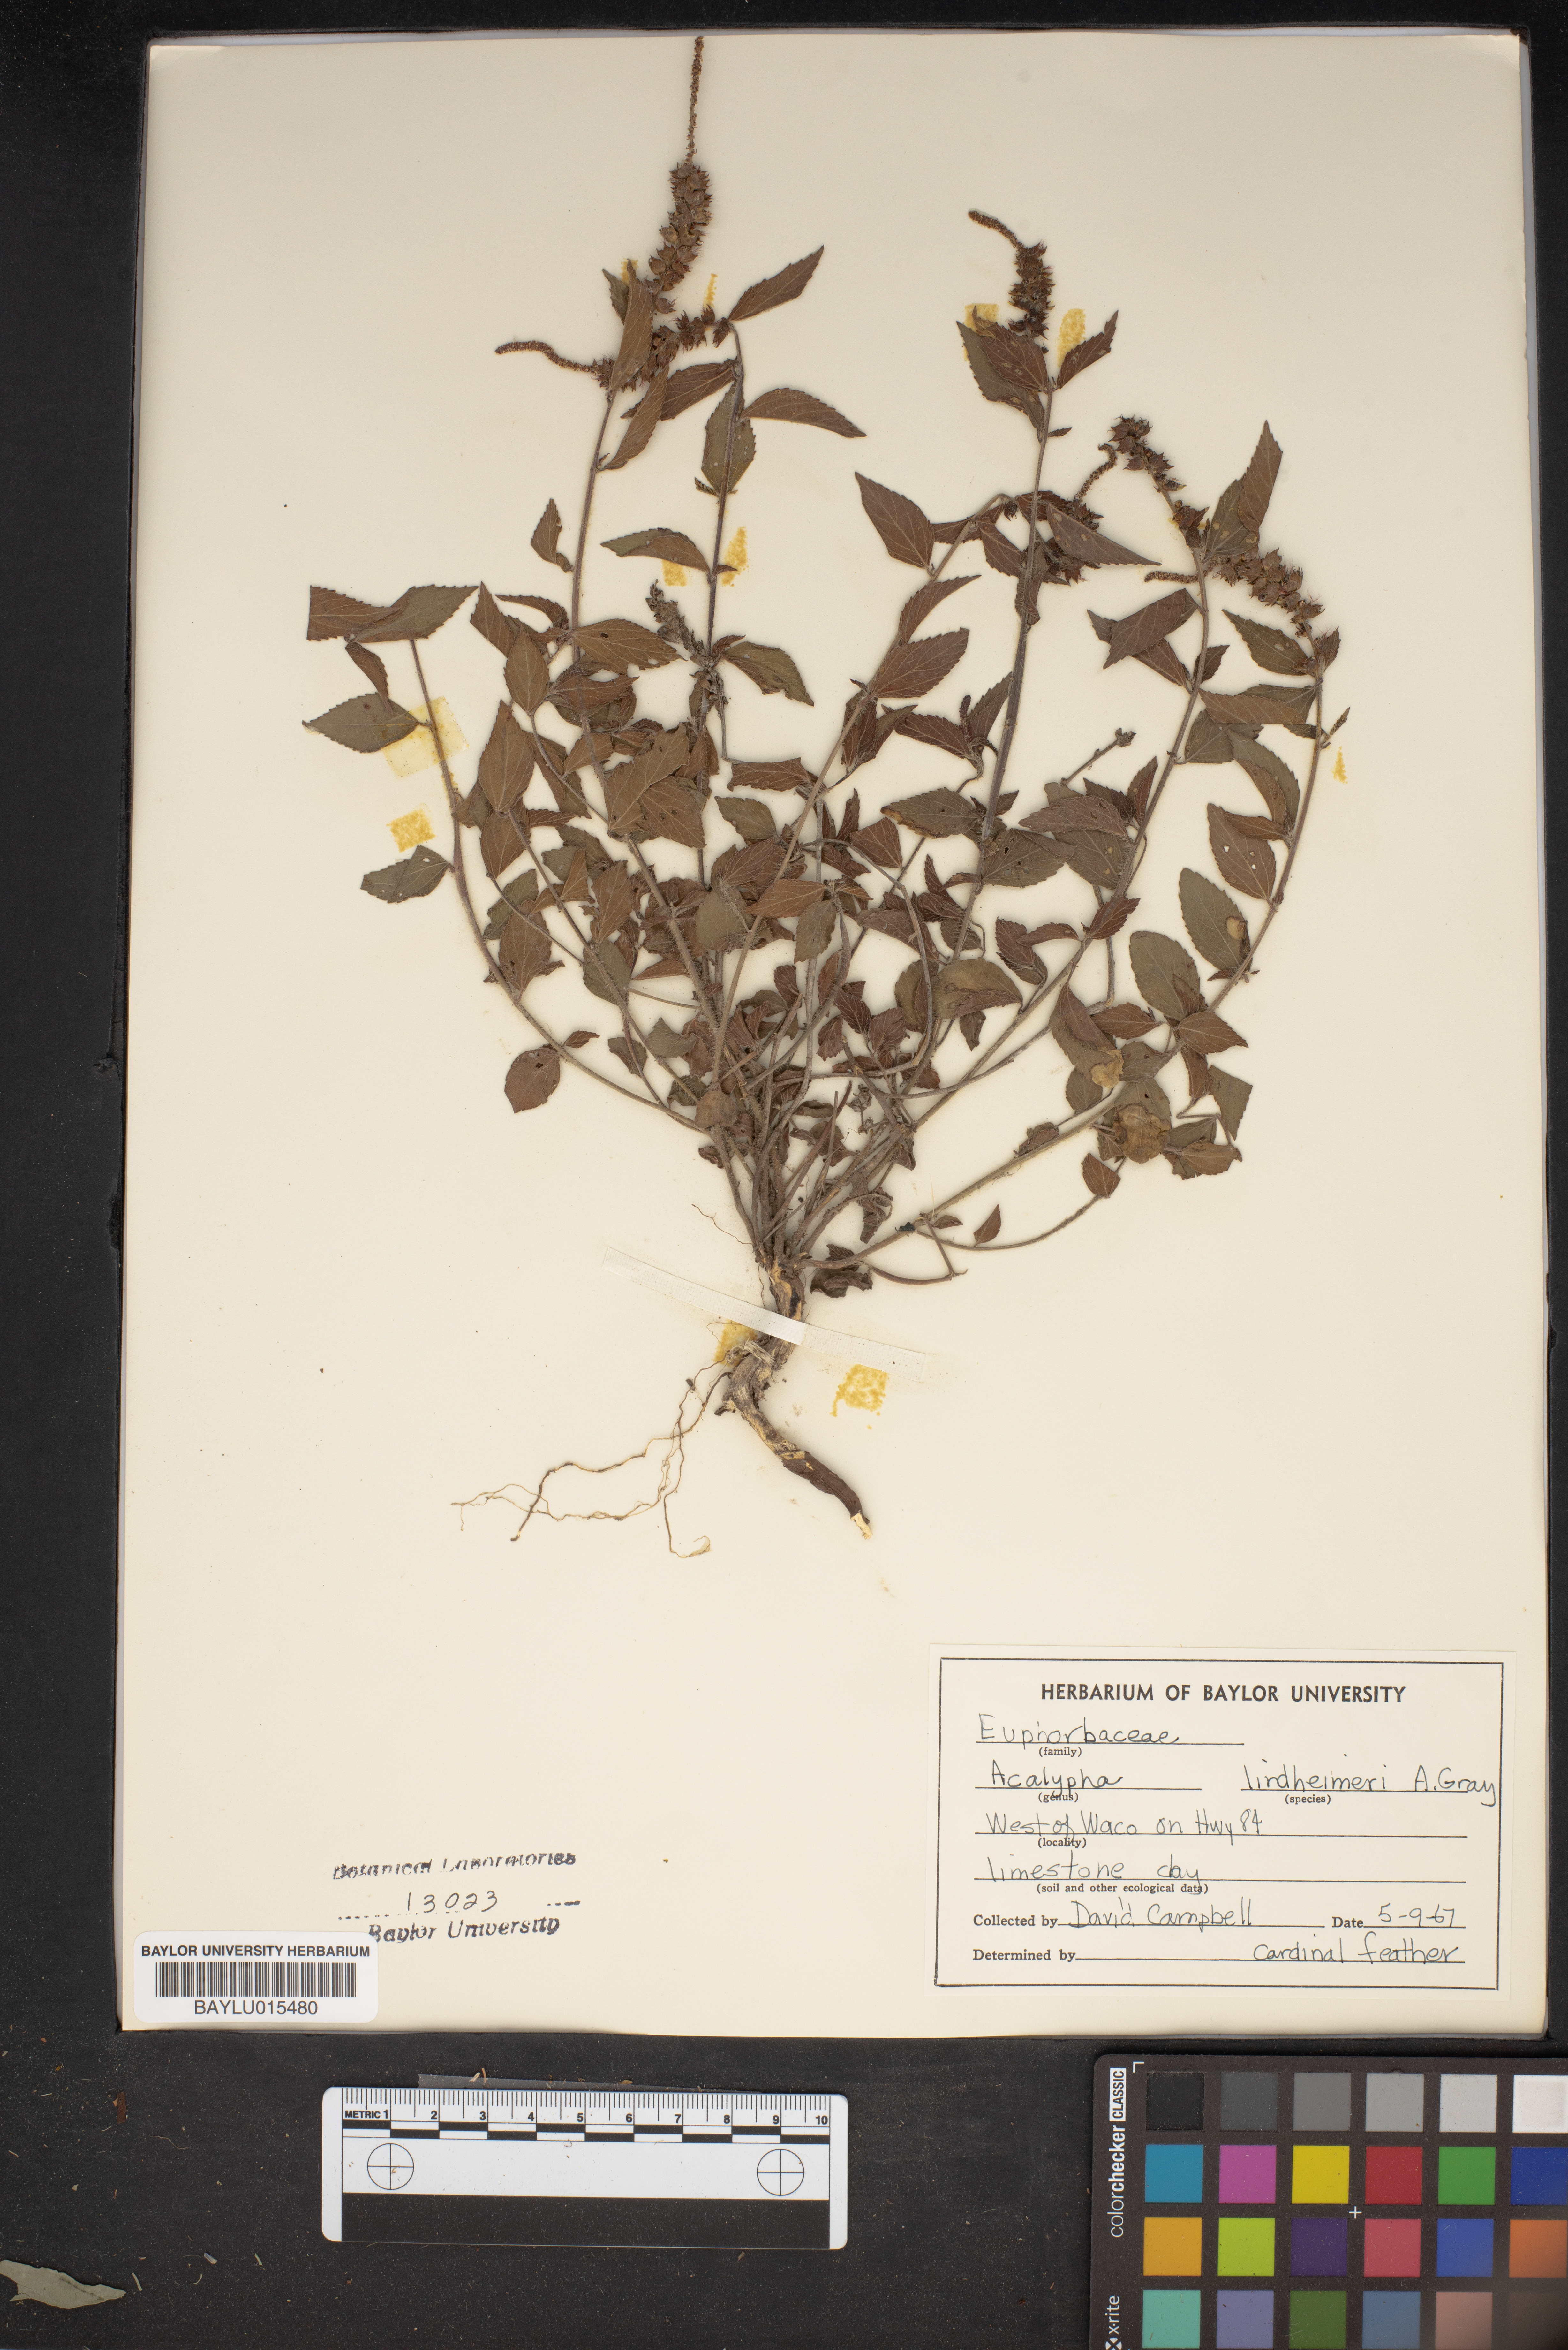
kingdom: Plantae
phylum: Tracheophyta
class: Magnoliopsida
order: Malpighiales
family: Euphorbiaceae
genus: Acalypha
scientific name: Acalypha phleoides
